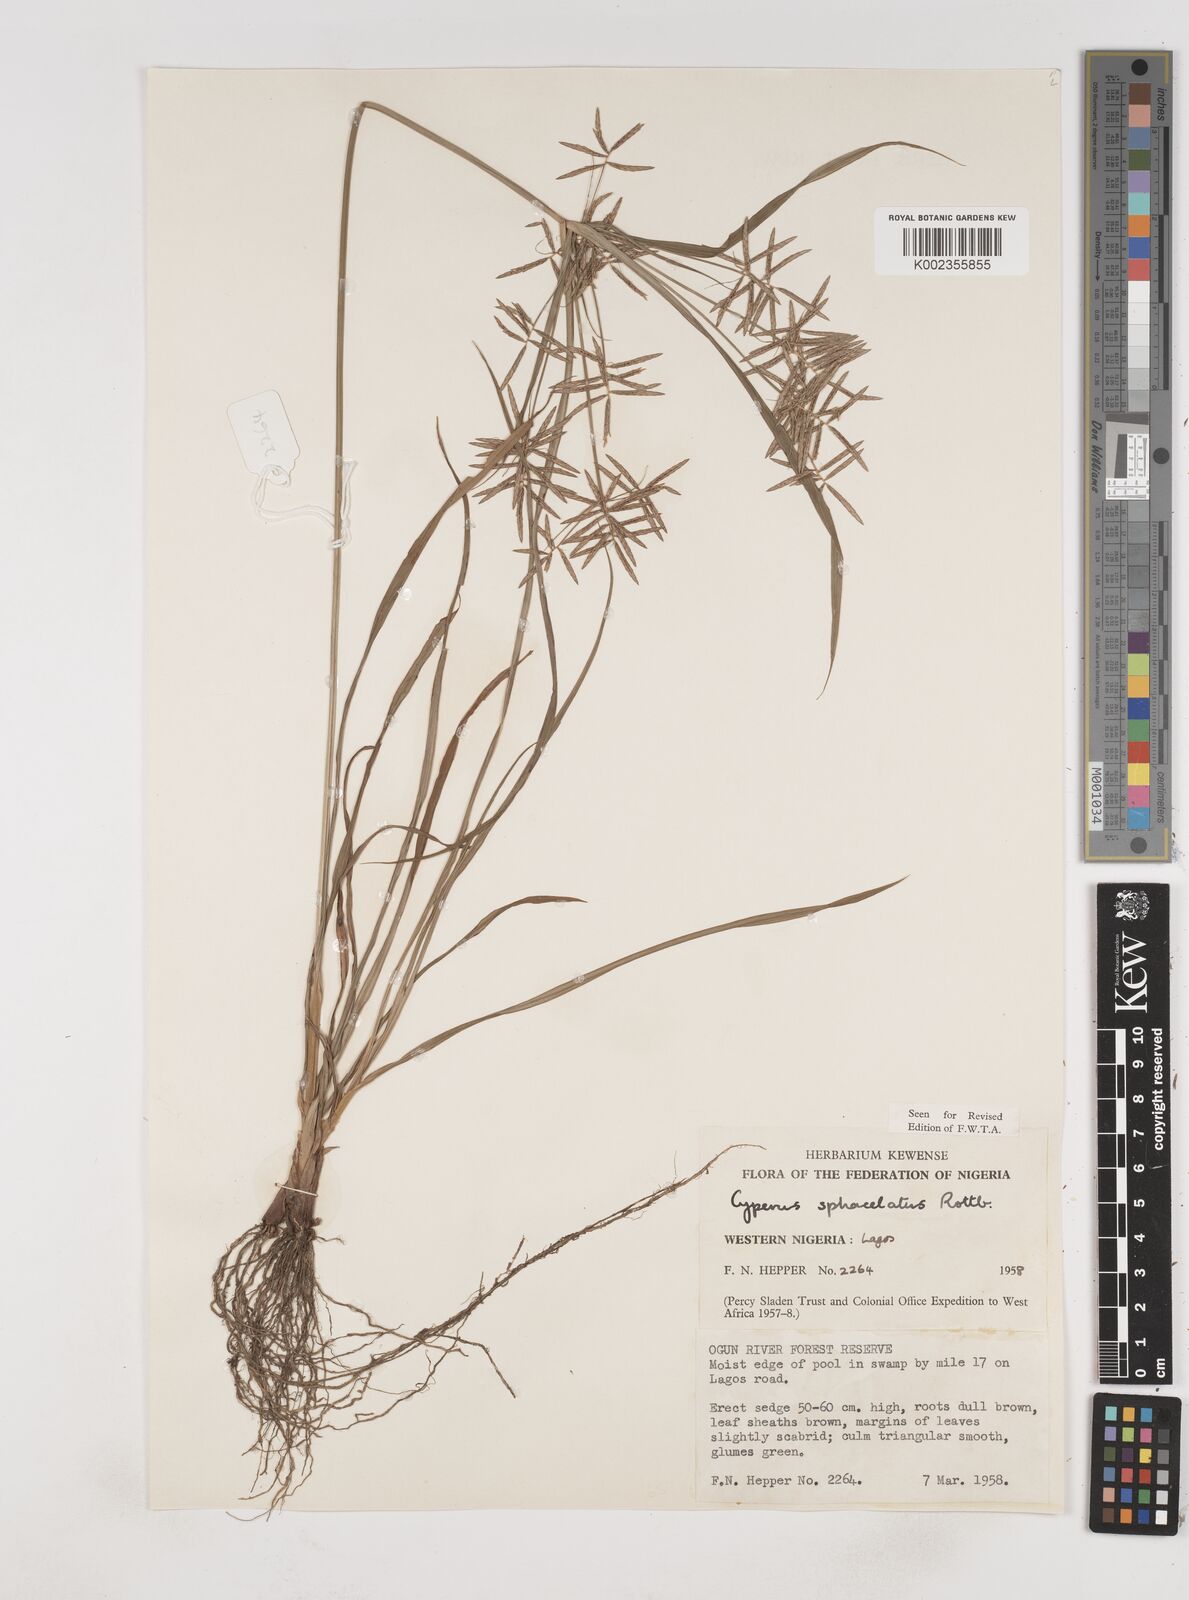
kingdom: Plantae
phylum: Tracheophyta
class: Liliopsida
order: Poales
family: Cyperaceae
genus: Cyperus
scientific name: Cyperus sphacelatus
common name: Roadside flatsedge
